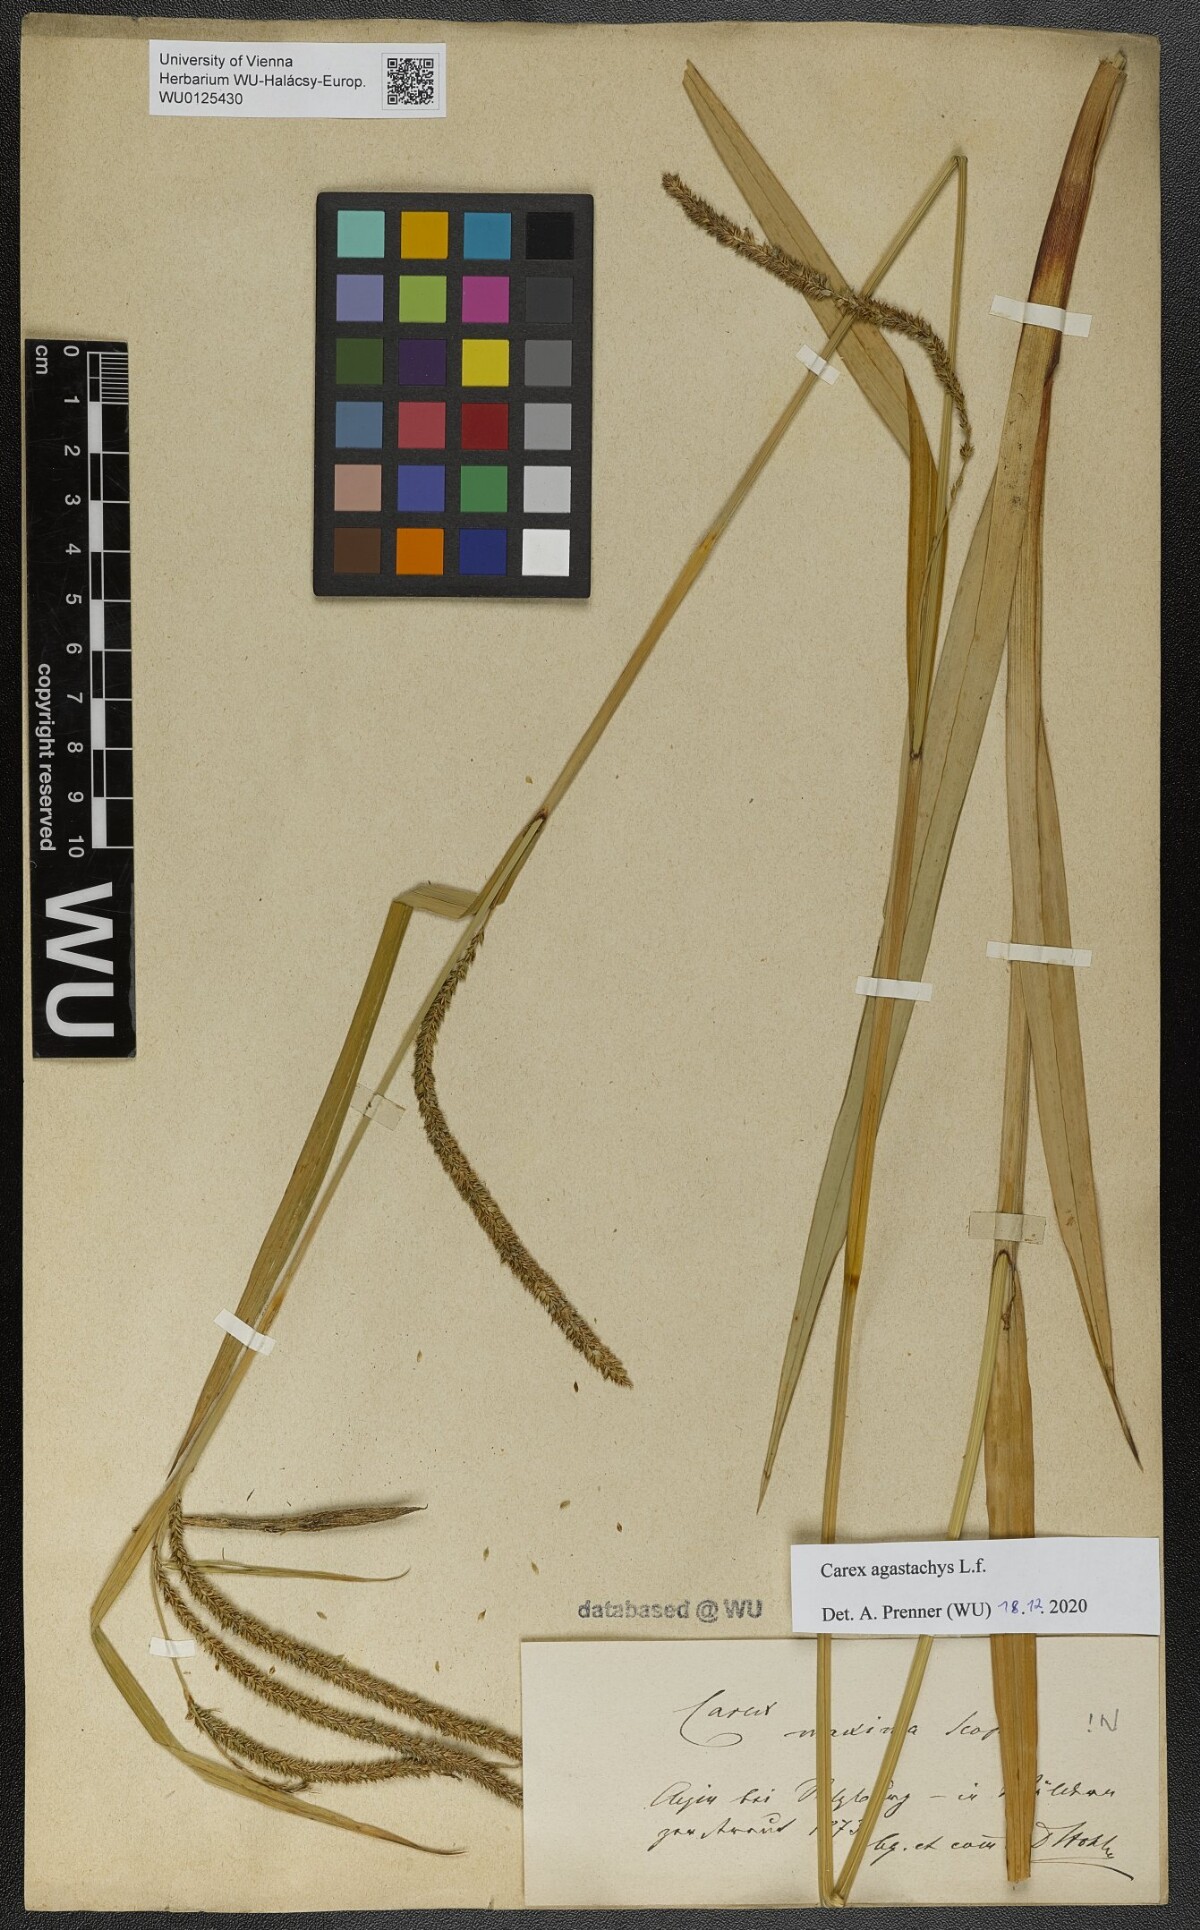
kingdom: Plantae
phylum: Tracheophyta
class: Liliopsida
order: Poales
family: Cyperaceae
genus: Carex
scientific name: Carex agastachys
